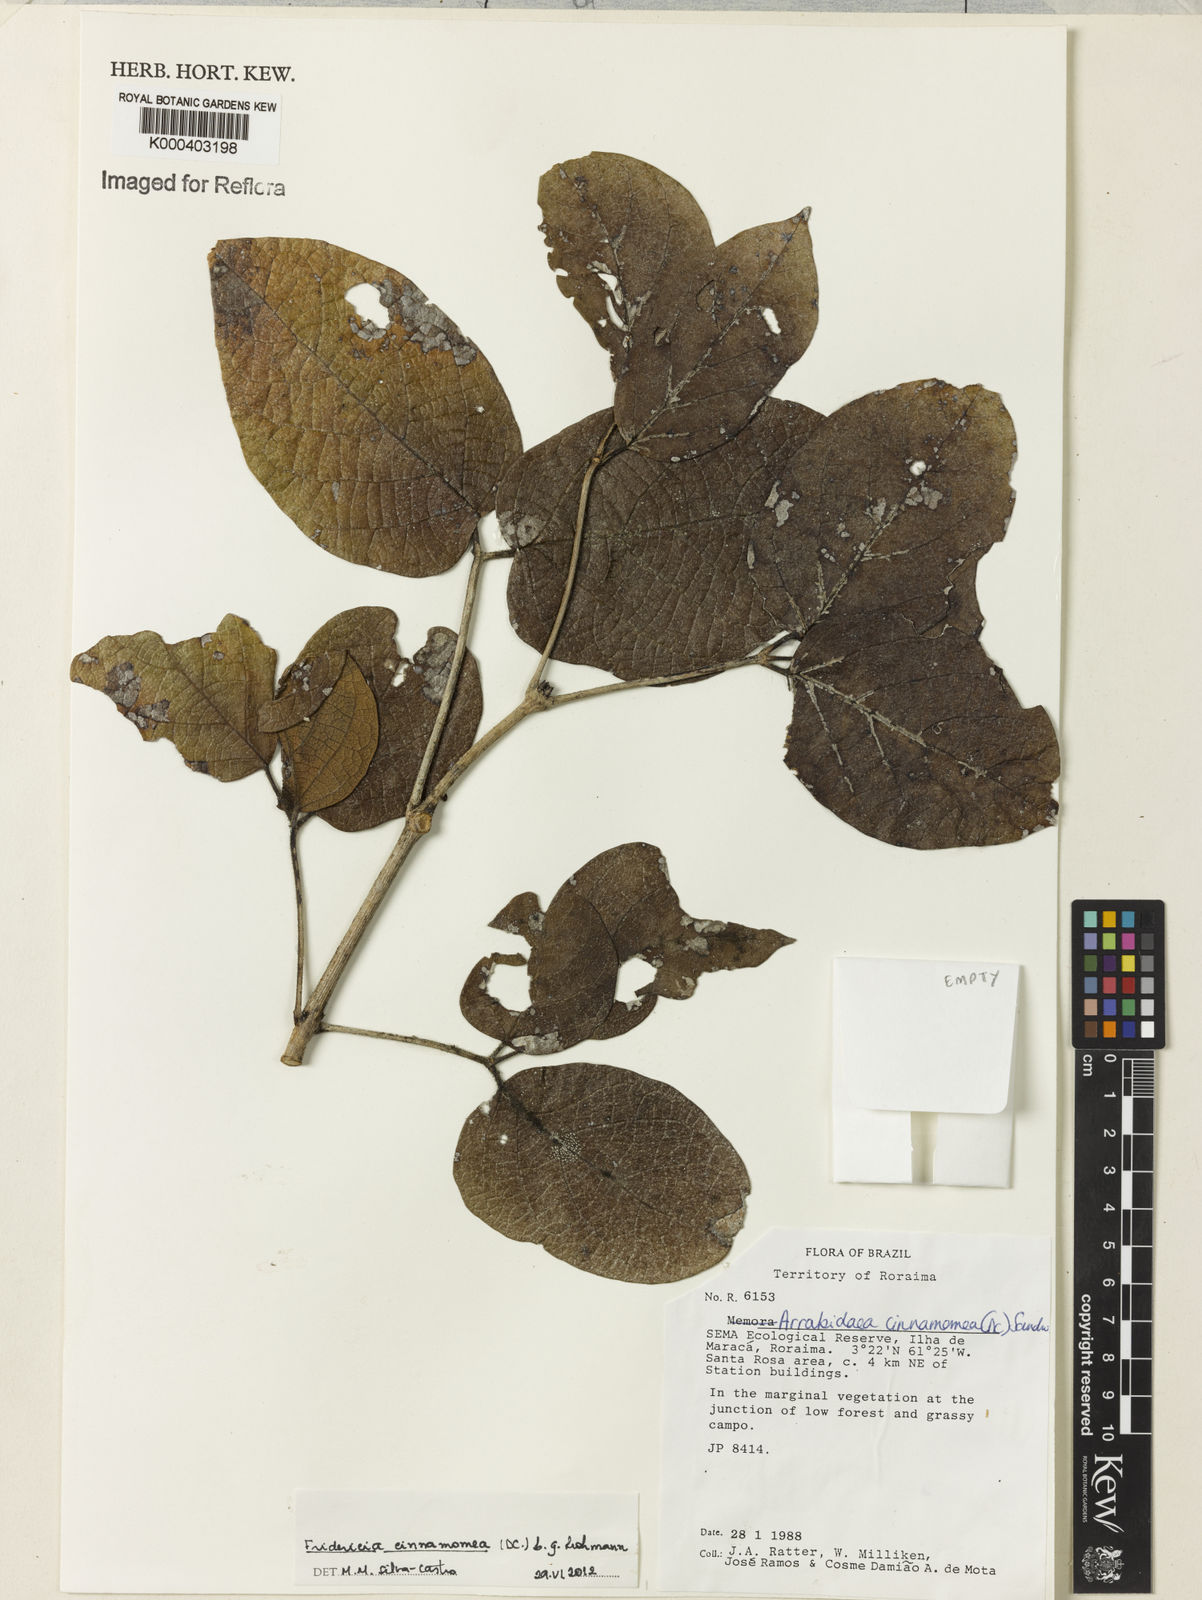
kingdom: Plantae
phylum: Tracheophyta
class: Magnoliopsida
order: Lamiales
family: Bignoniaceae
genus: Fridericia
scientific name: Fridericia cinnamomea
